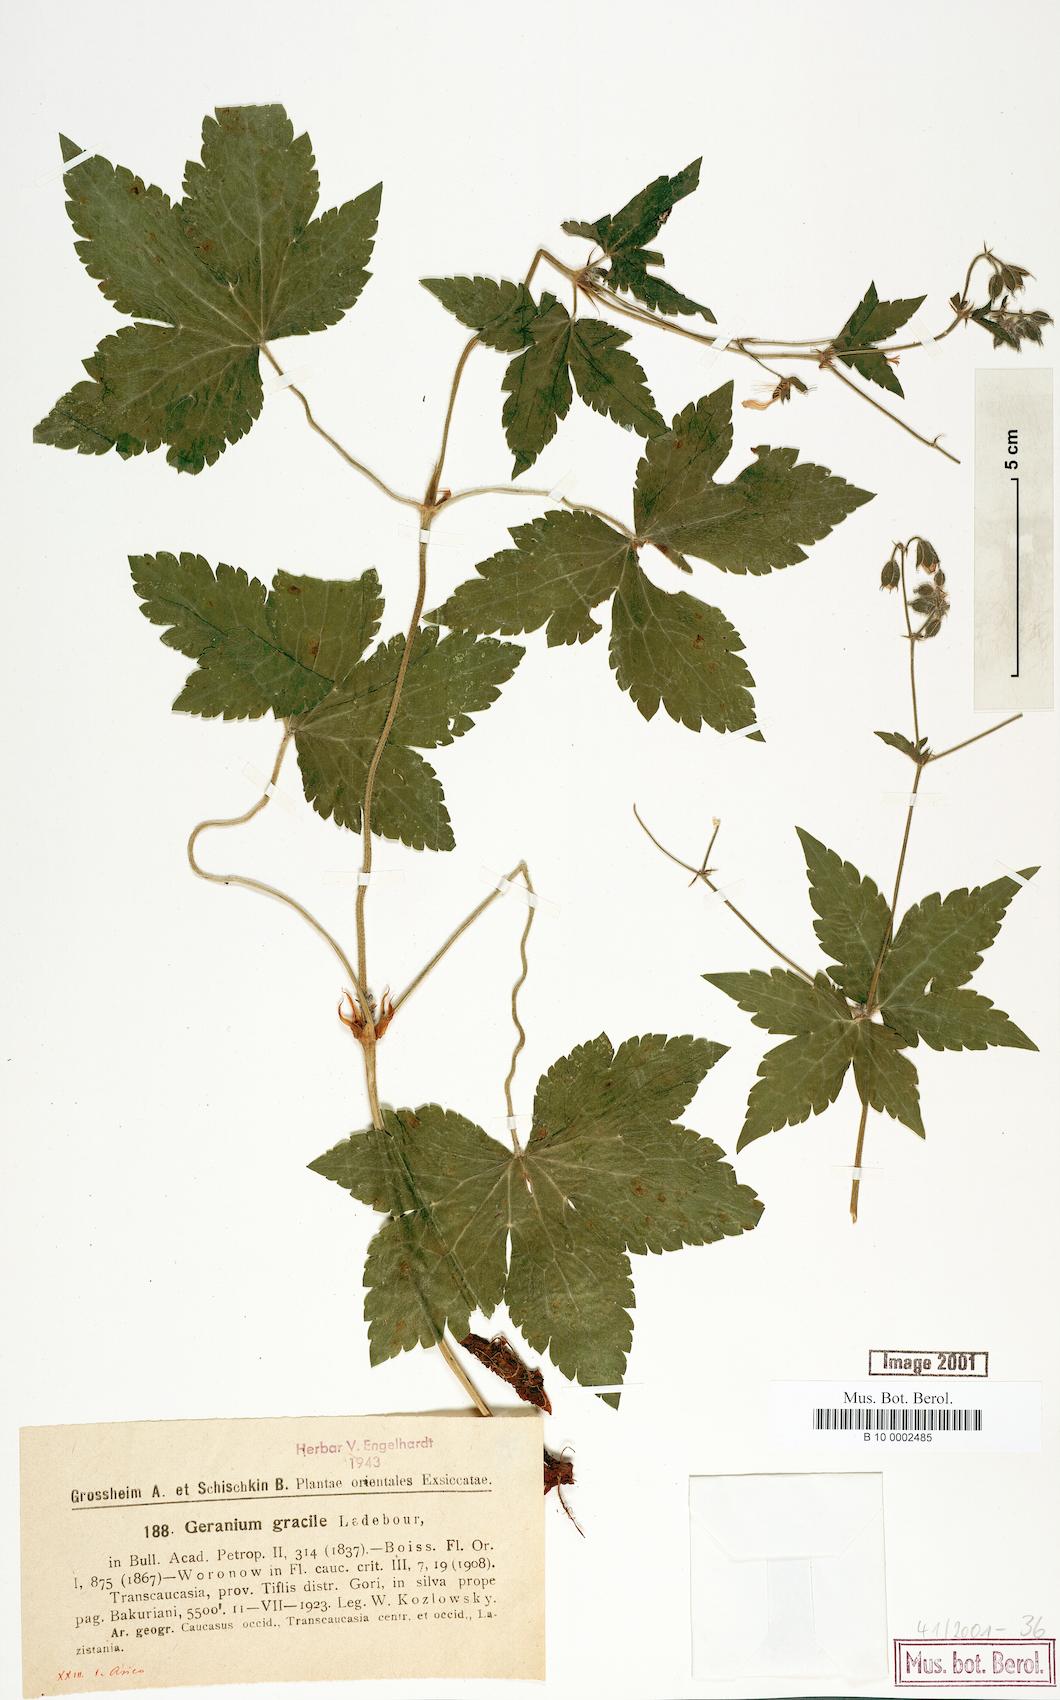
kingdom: Plantae
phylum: Tracheophyta
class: Magnoliopsida
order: Geraniales
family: Geraniaceae
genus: Geranium
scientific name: Geranium gracile
